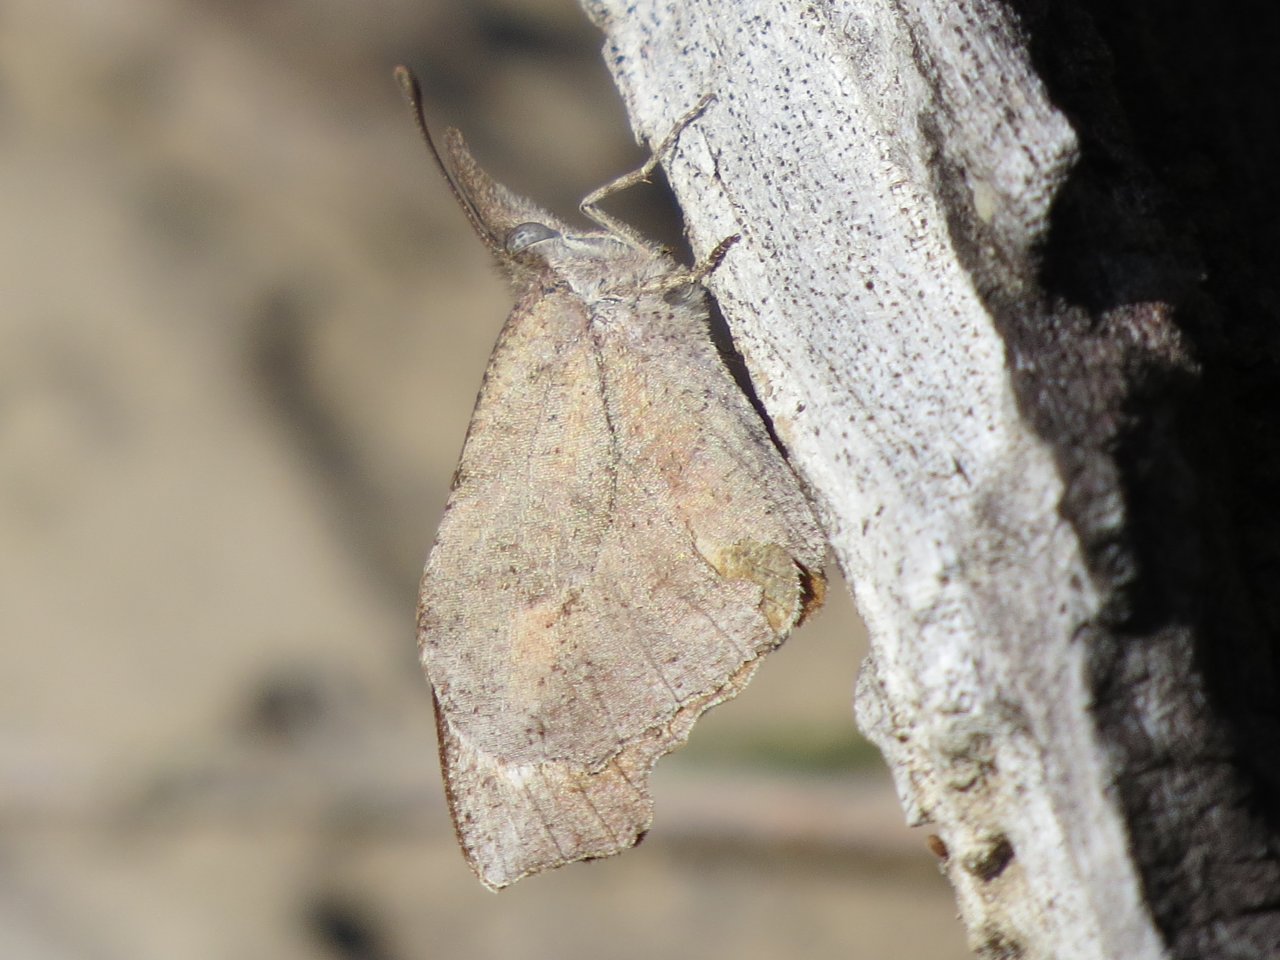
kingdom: Animalia
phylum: Arthropoda
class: Insecta
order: Lepidoptera
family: Nymphalidae
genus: Libytheana
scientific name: Libytheana carinenta
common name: American Snout
